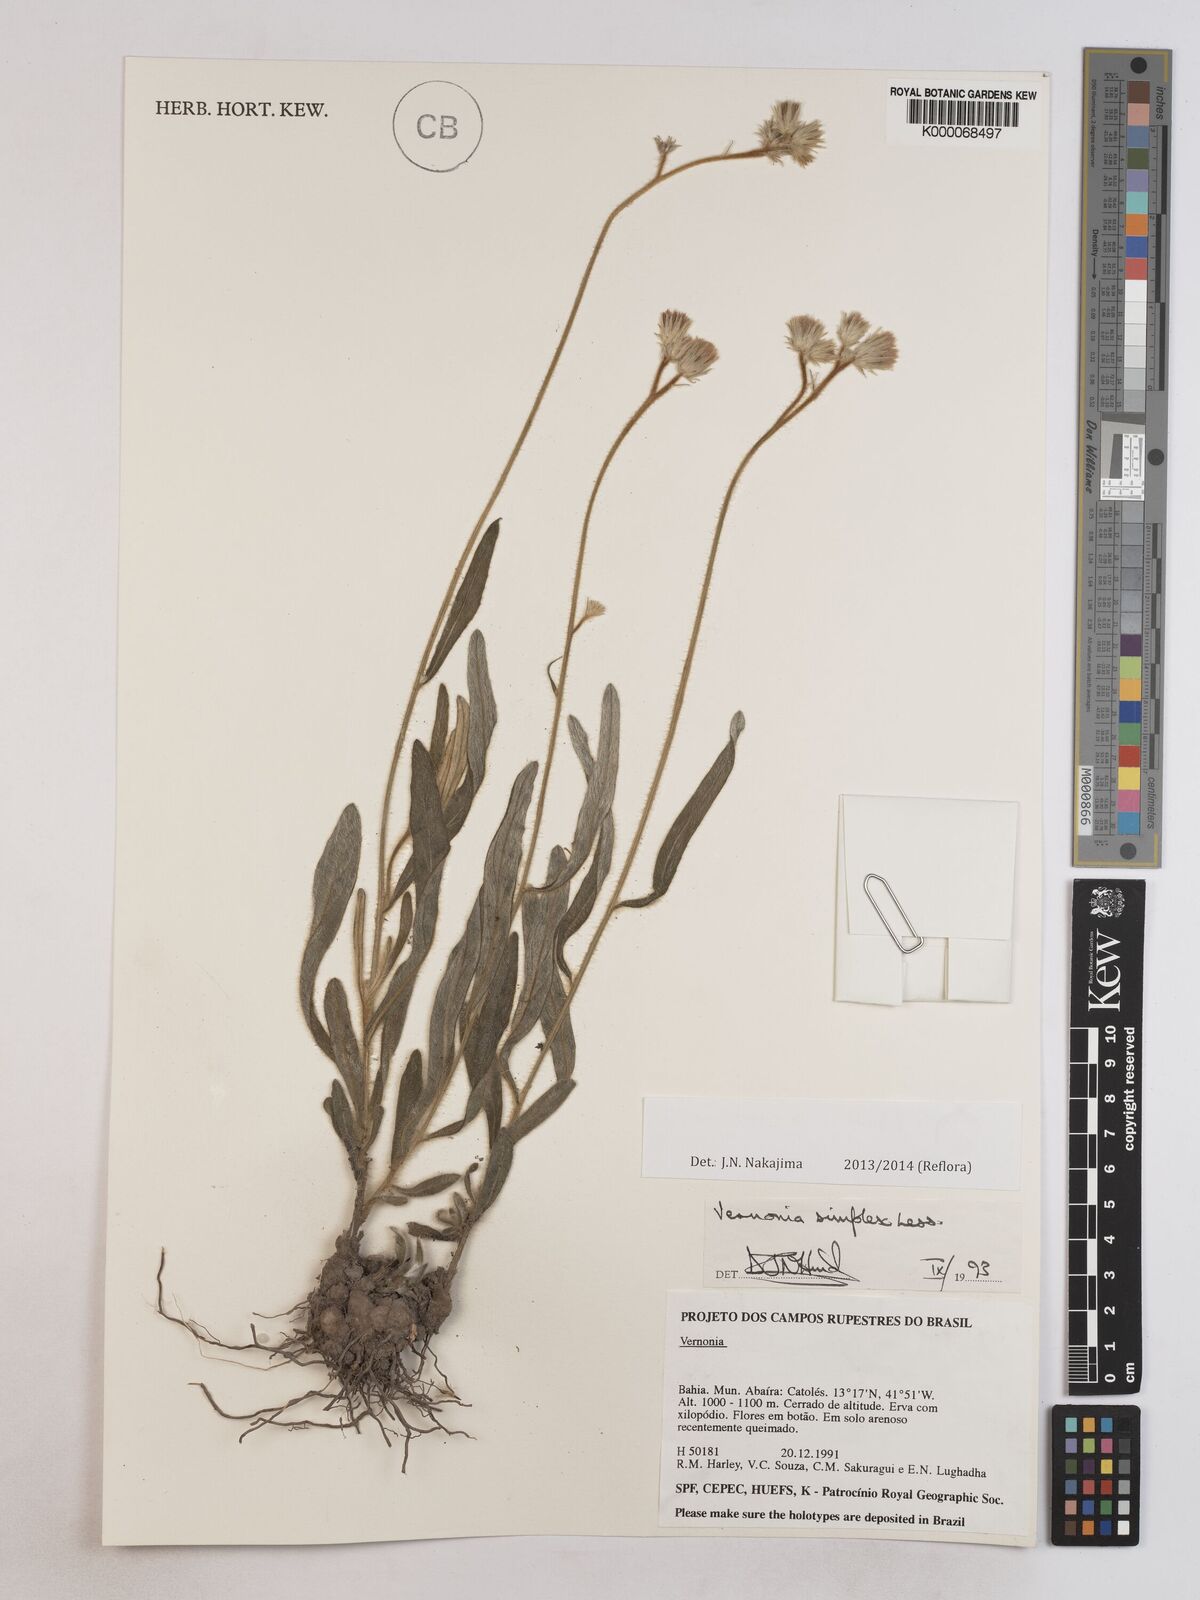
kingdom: Plantae
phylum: Tracheophyta
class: Magnoliopsida
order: Asterales
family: Asteraceae
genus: Chrysolaena
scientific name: Chrysolaena simplex
